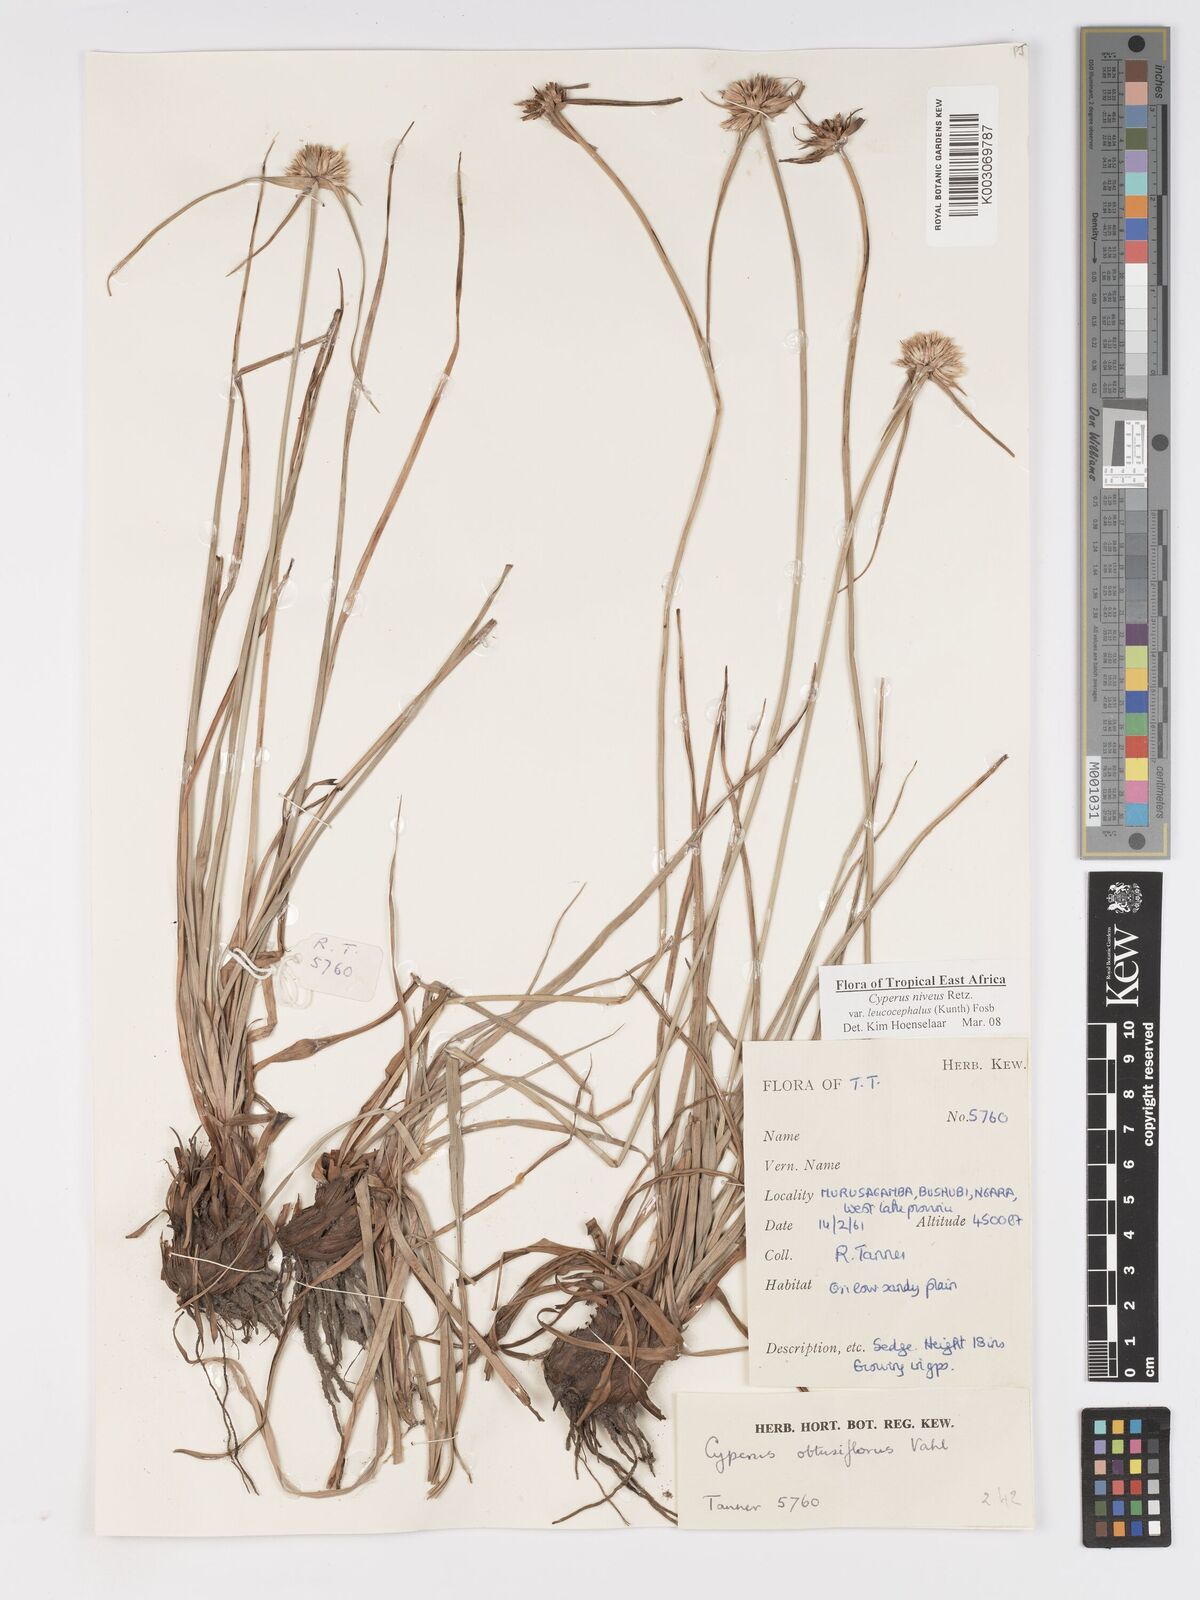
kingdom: Plantae
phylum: Tracheophyta
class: Liliopsida
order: Poales
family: Cyperaceae
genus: Cyperus
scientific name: Cyperus niveus
